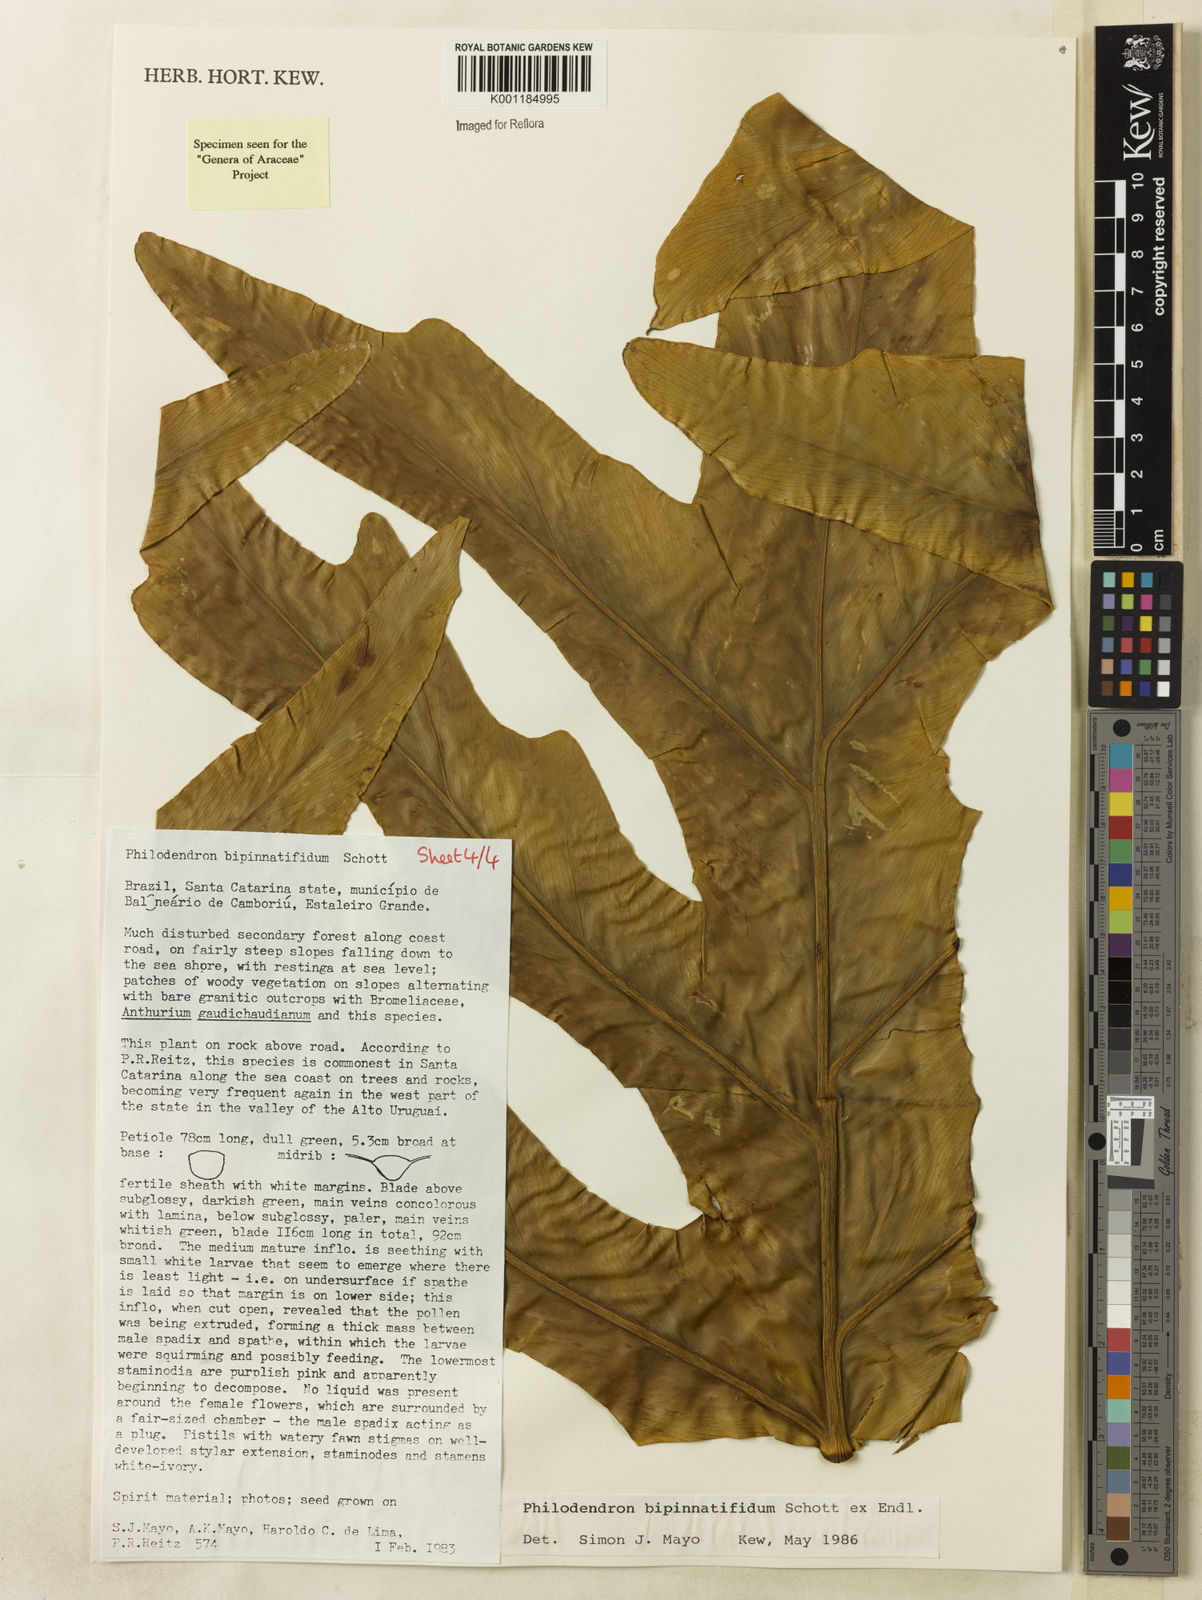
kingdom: Plantae
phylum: Tracheophyta
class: Liliopsida
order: Alismatales
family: Araceae
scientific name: Araceae
